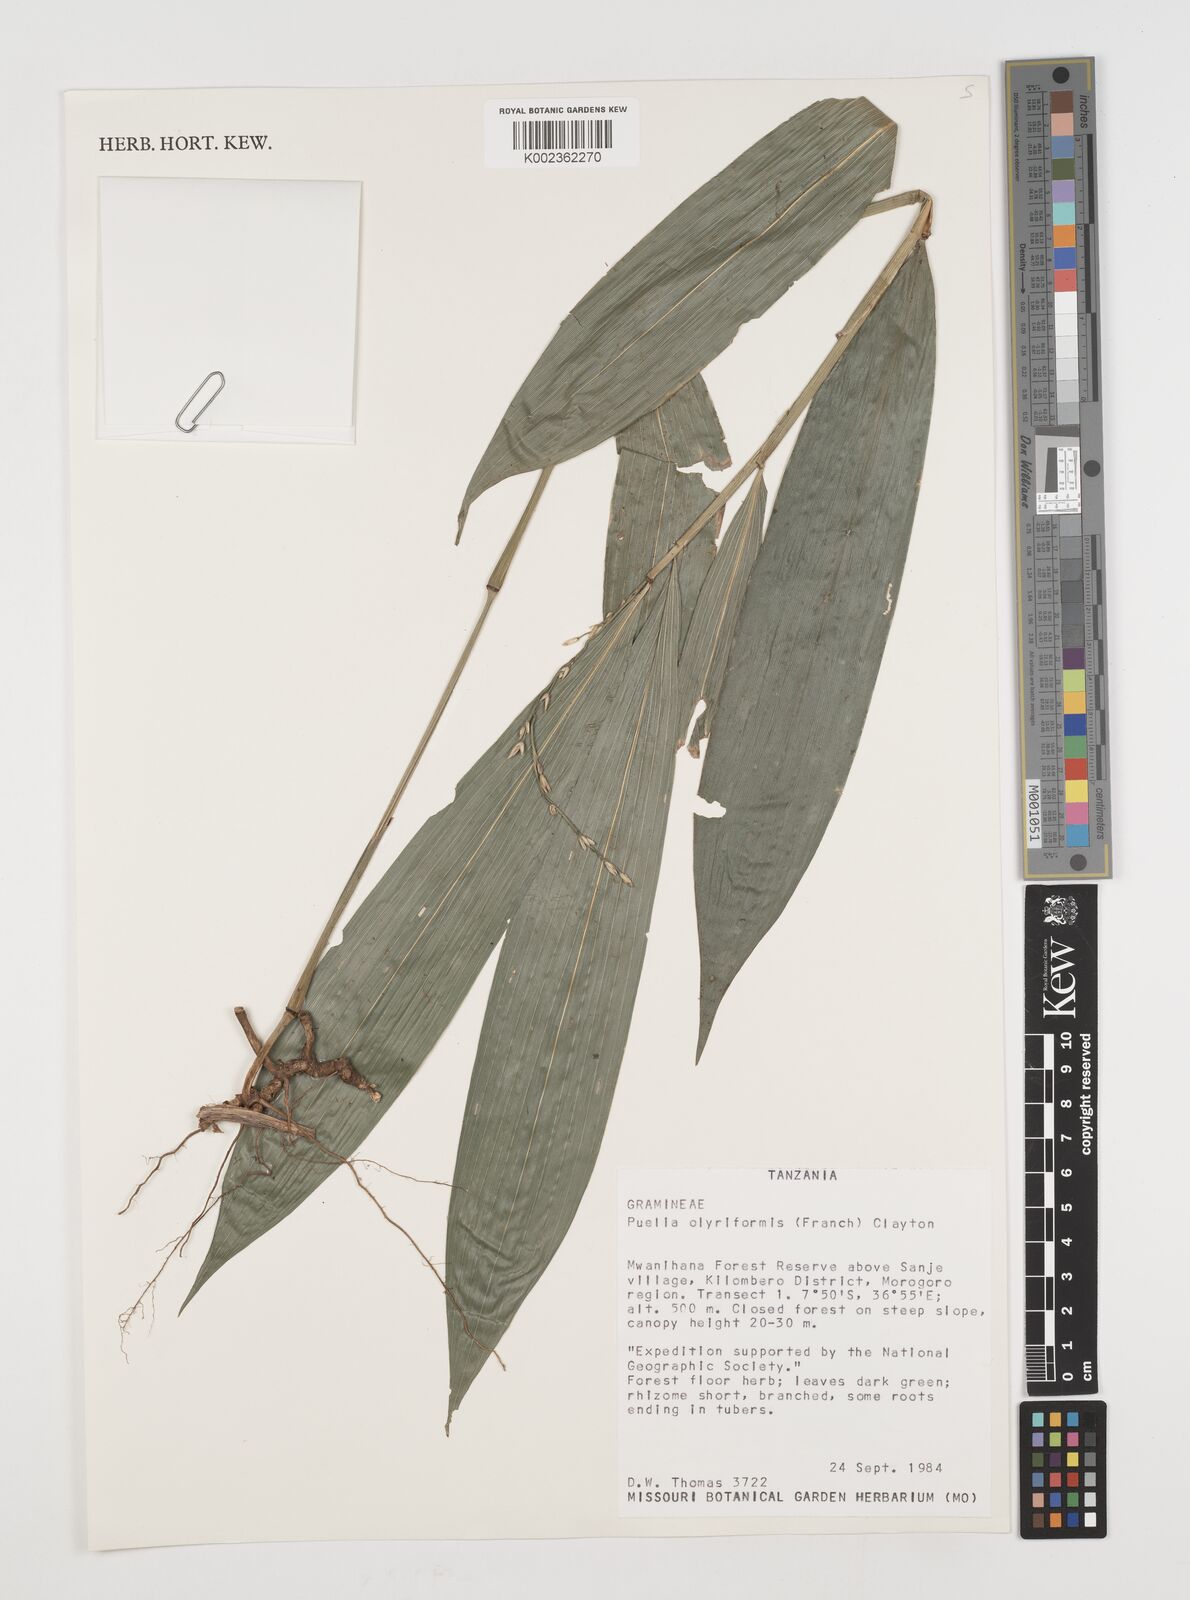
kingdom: Plantae
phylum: Tracheophyta
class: Liliopsida
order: Poales
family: Poaceae
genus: Puelia
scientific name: Puelia olyriformis
